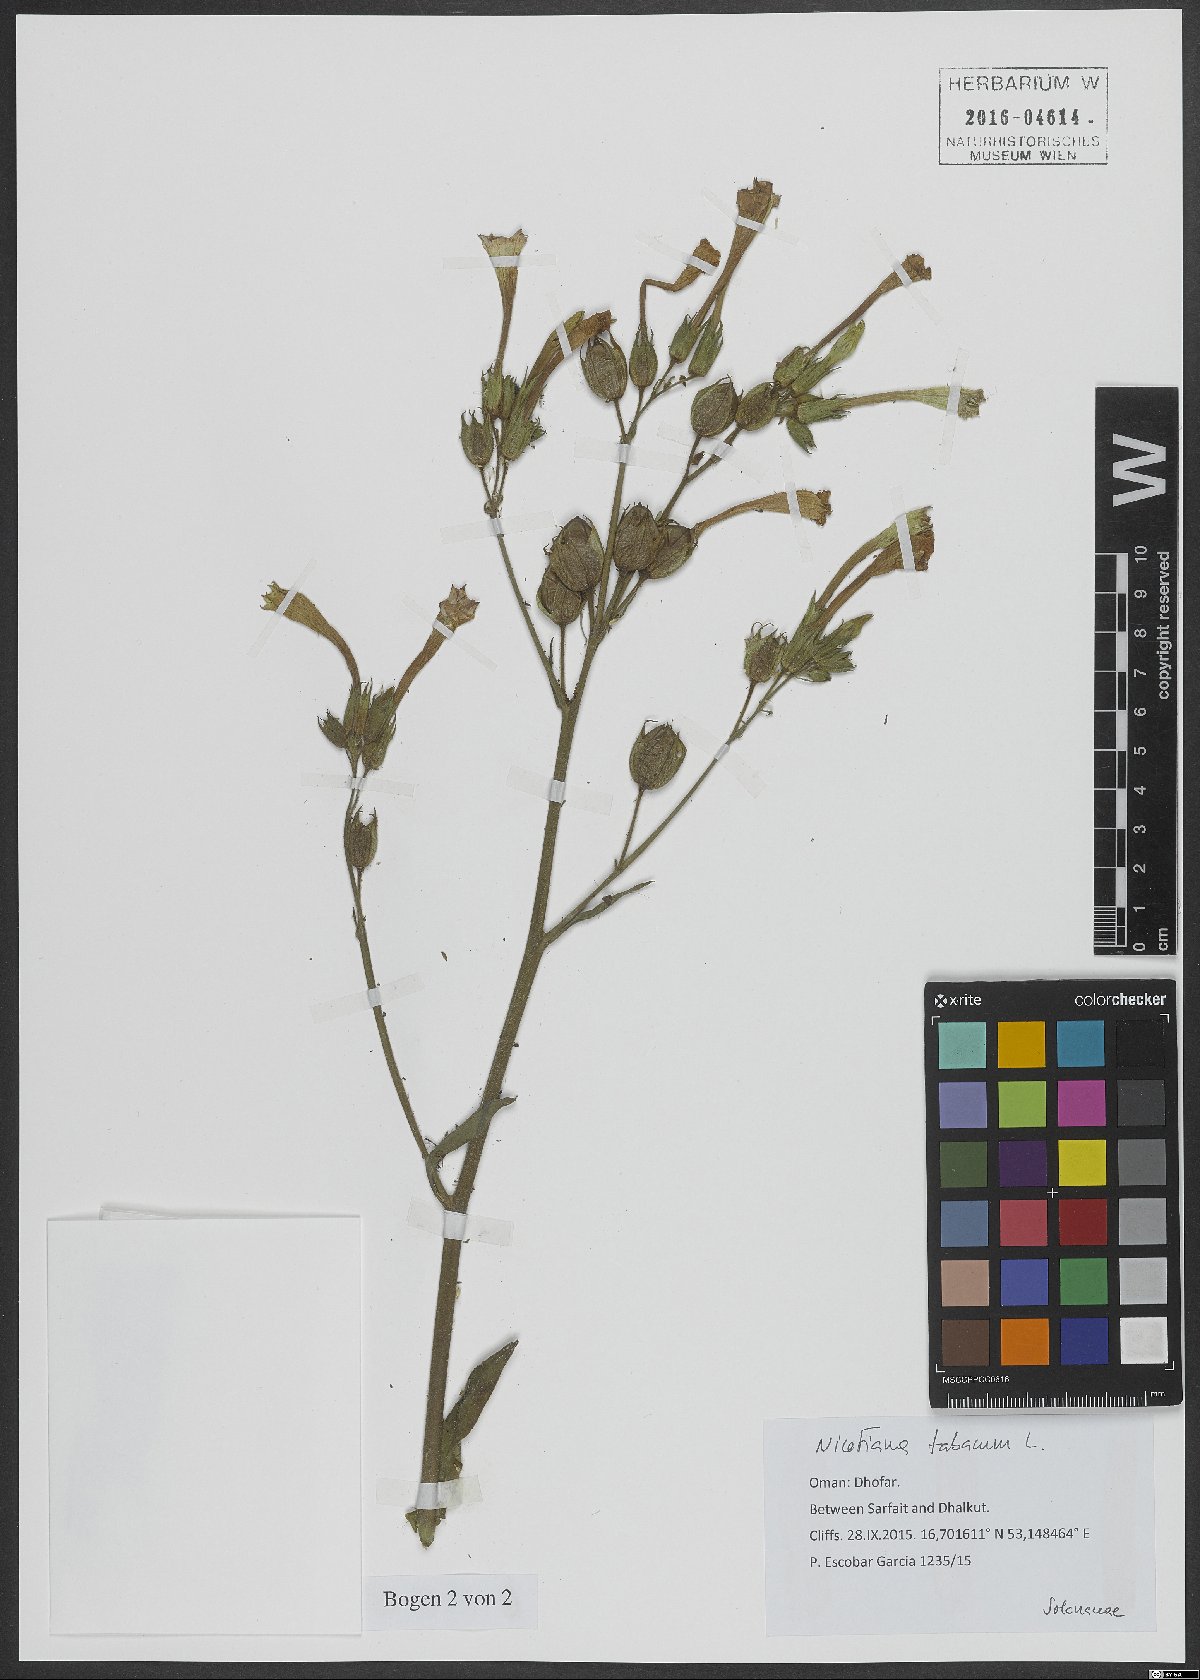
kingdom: Plantae
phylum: Tracheophyta
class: Magnoliopsida
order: Solanales
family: Solanaceae
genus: Nicotiana
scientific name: Nicotiana tabacum
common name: Tobacco
